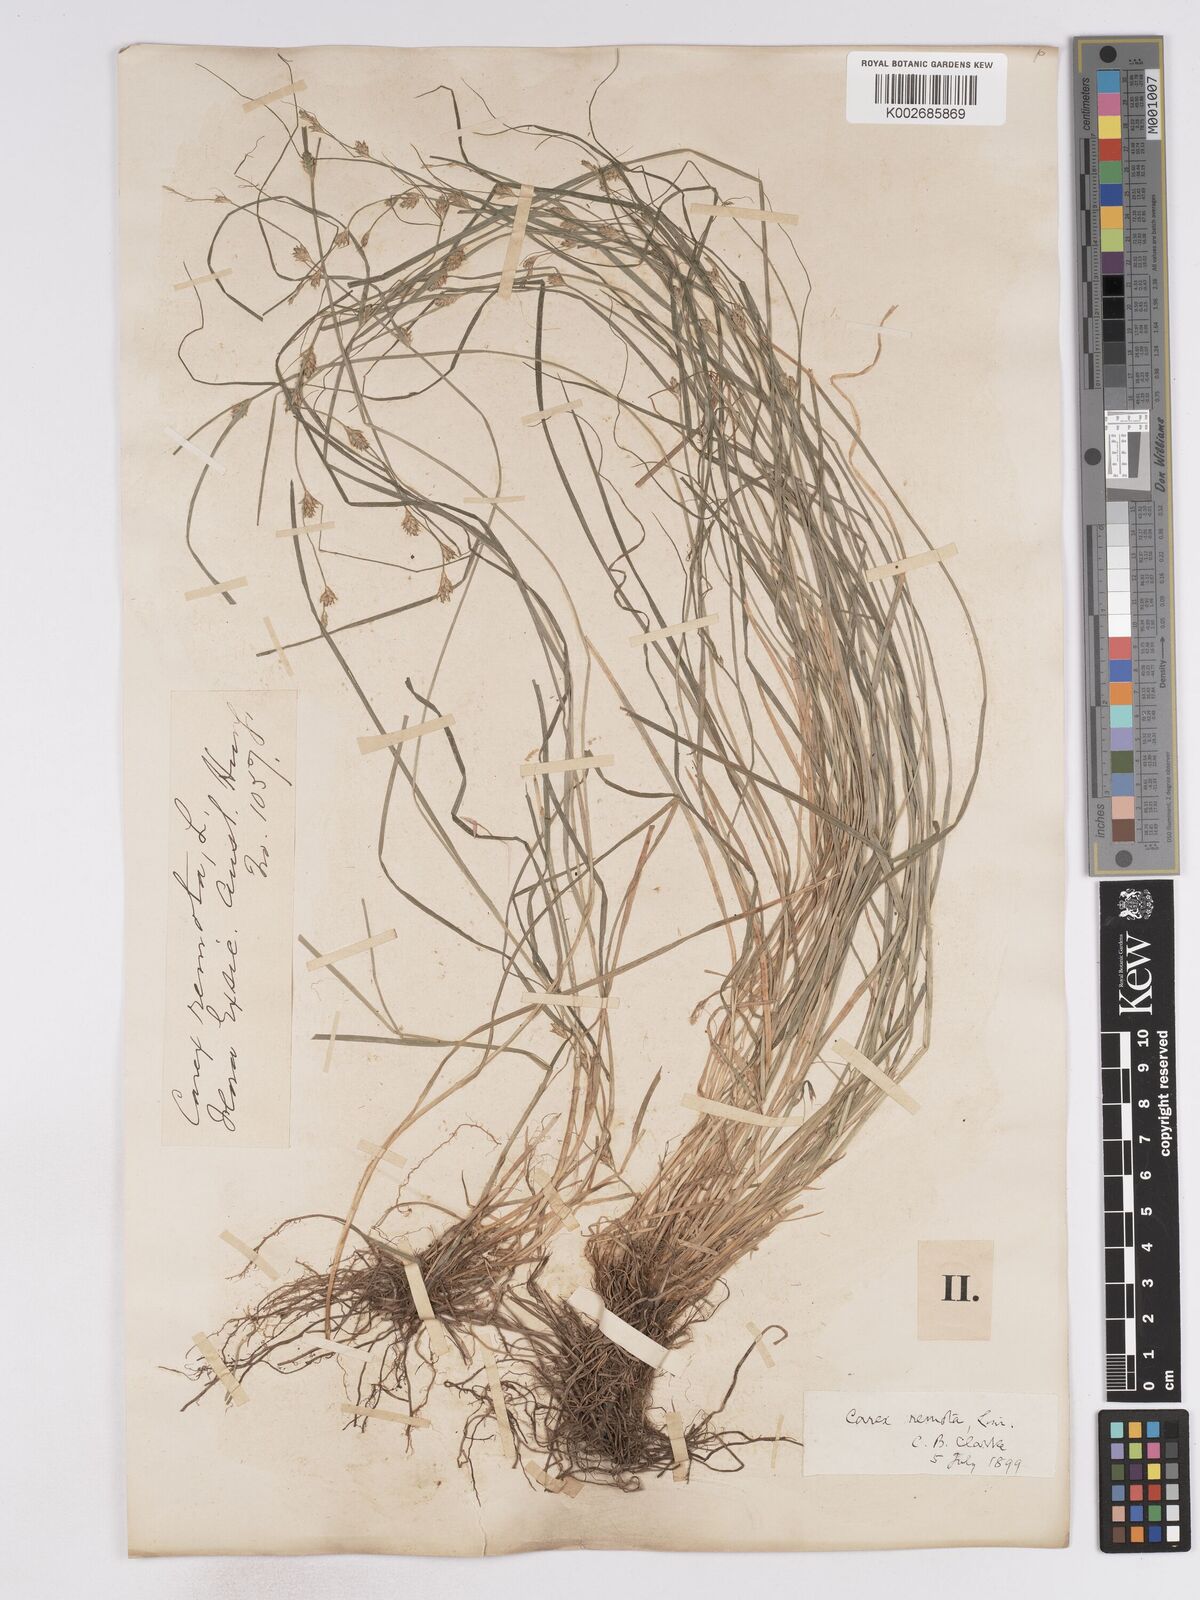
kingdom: Plantae
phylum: Tracheophyta
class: Liliopsida
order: Poales
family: Cyperaceae
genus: Carex
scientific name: Carex remota
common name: Remote sedge
